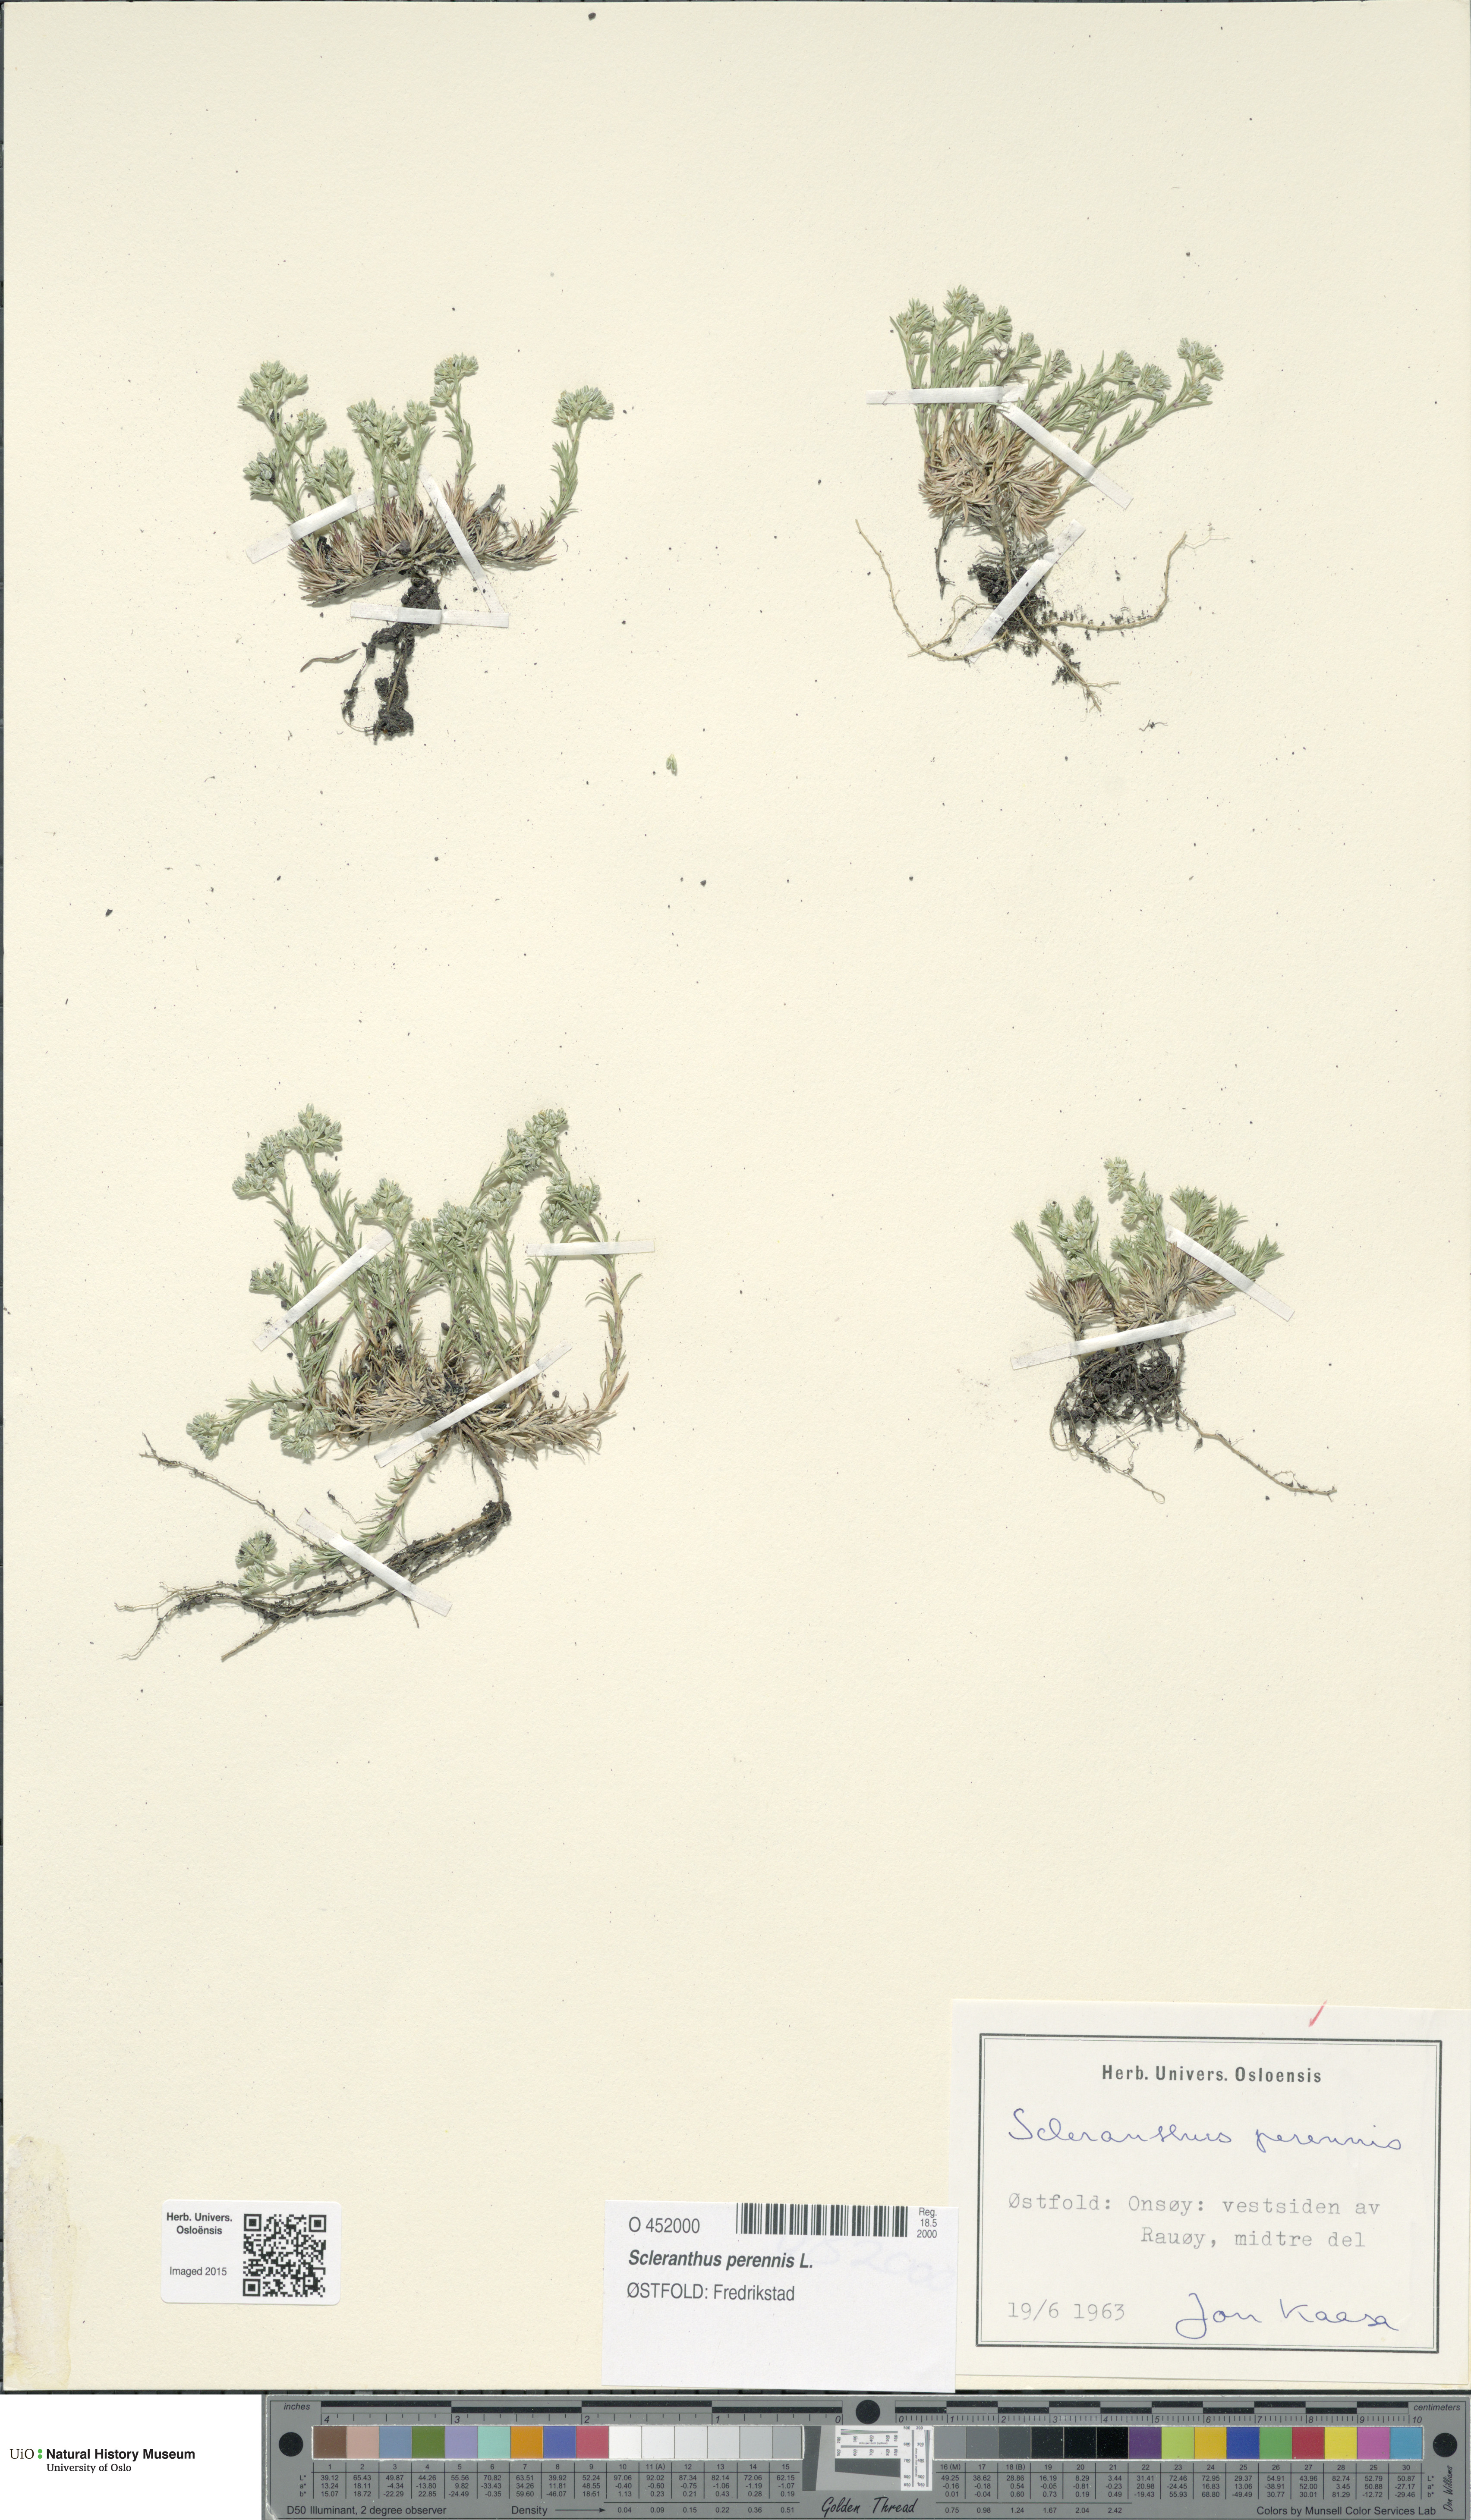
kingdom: Plantae
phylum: Tracheophyta
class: Magnoliopsida
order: Caryophyllales
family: Caryophyllaceae
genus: Scleranthus
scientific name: Scleranthus perennis
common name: Perennial knawel
